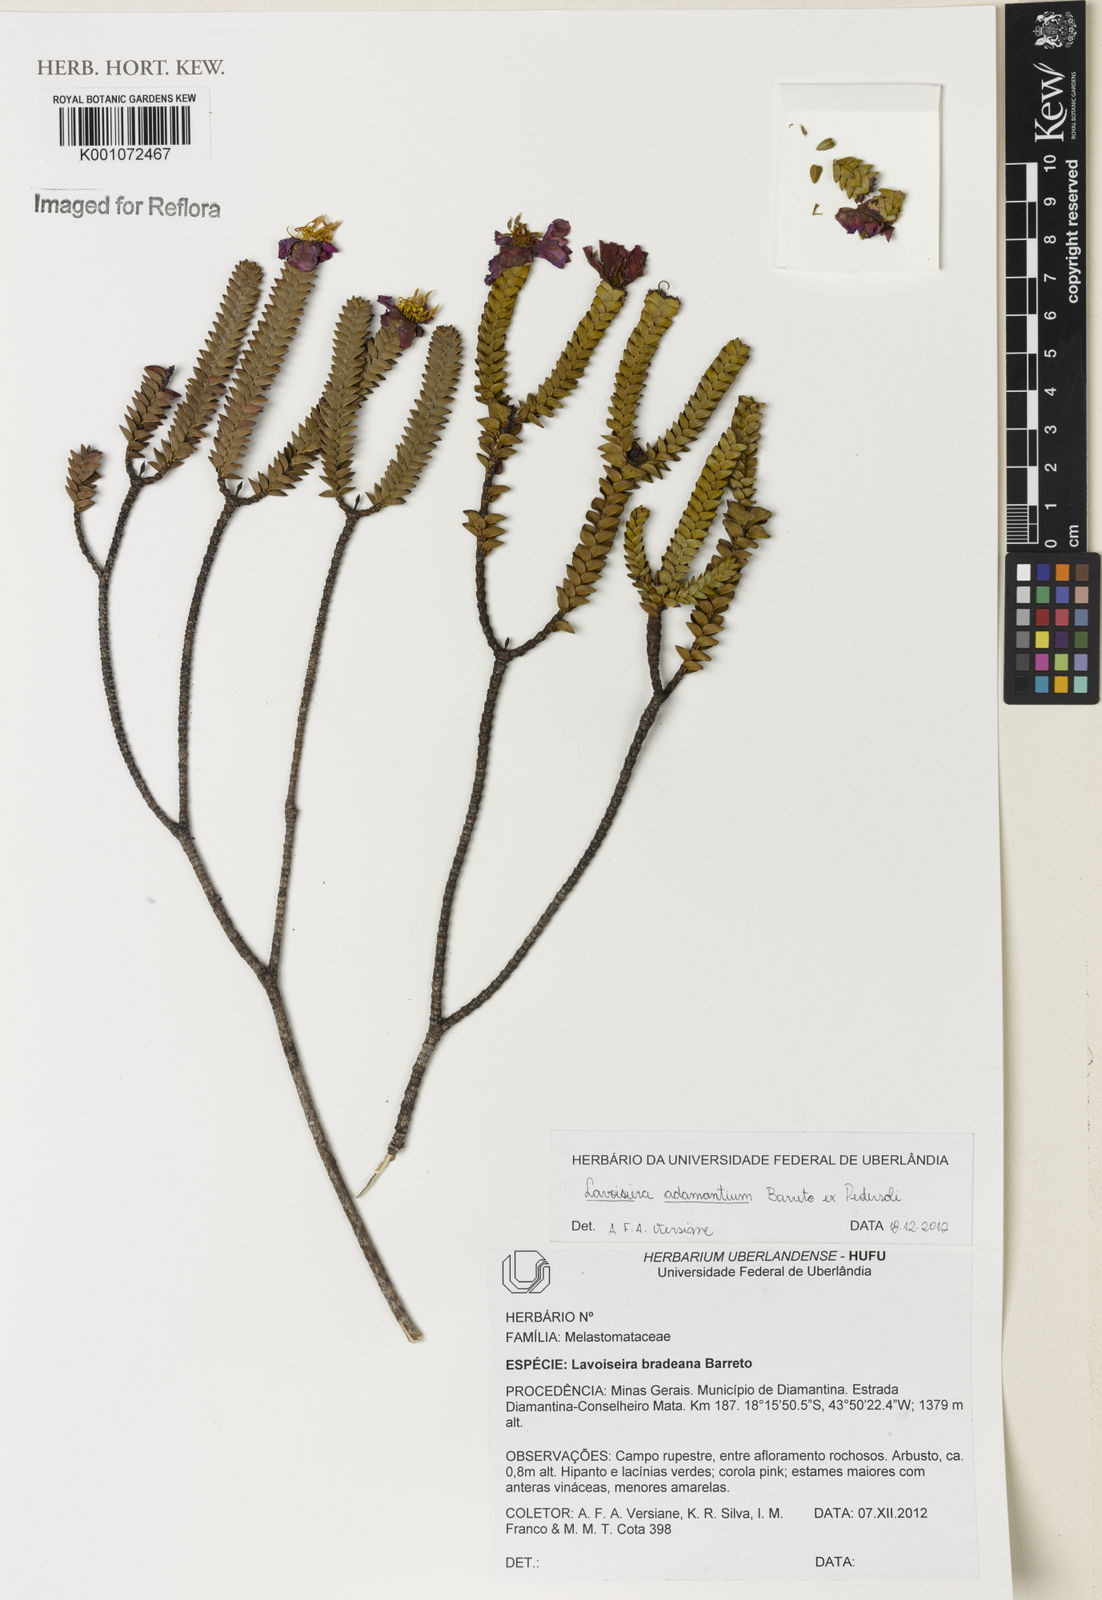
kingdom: Plantae
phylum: Tracheophyta
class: Magnoliopsida
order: Myrtales
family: Melastomataceae
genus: Microlicia
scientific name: Microlicia adamantium
